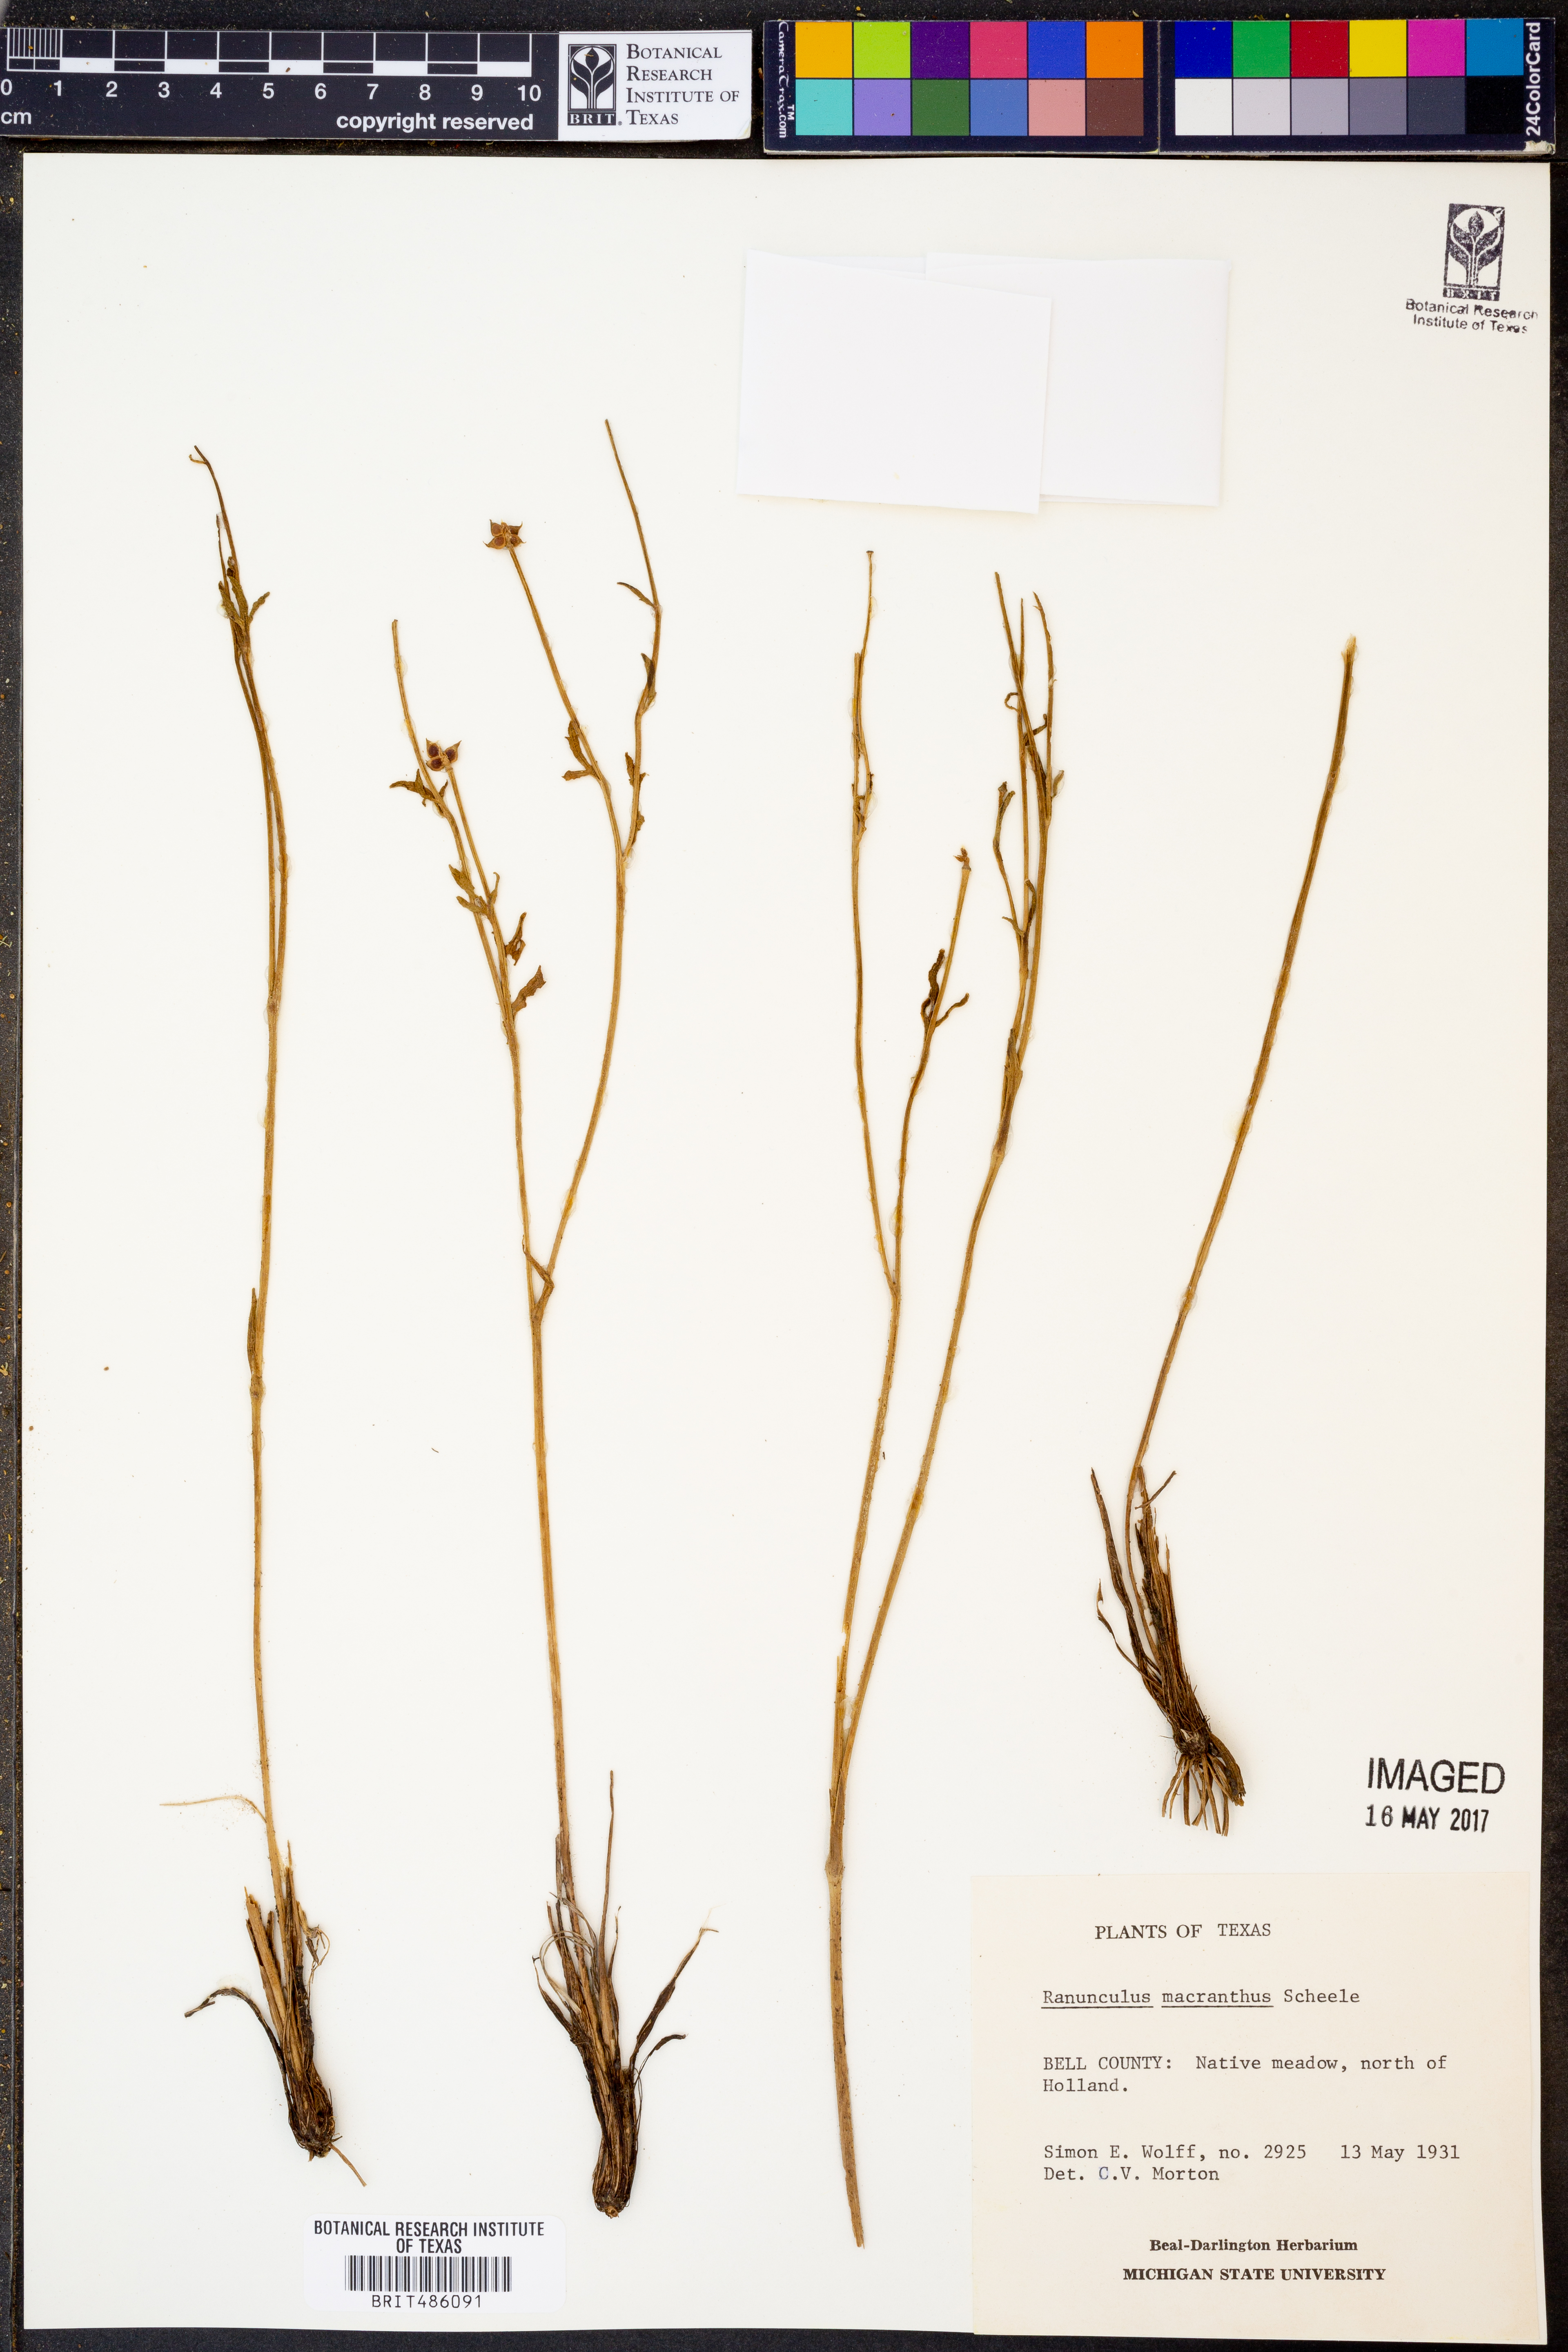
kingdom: Plantae
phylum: Tracheophyta
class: Magnoliopsida
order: Ranunculales
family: Ranunculaceae
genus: Ranunculus
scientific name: Ranunculus macranthus
